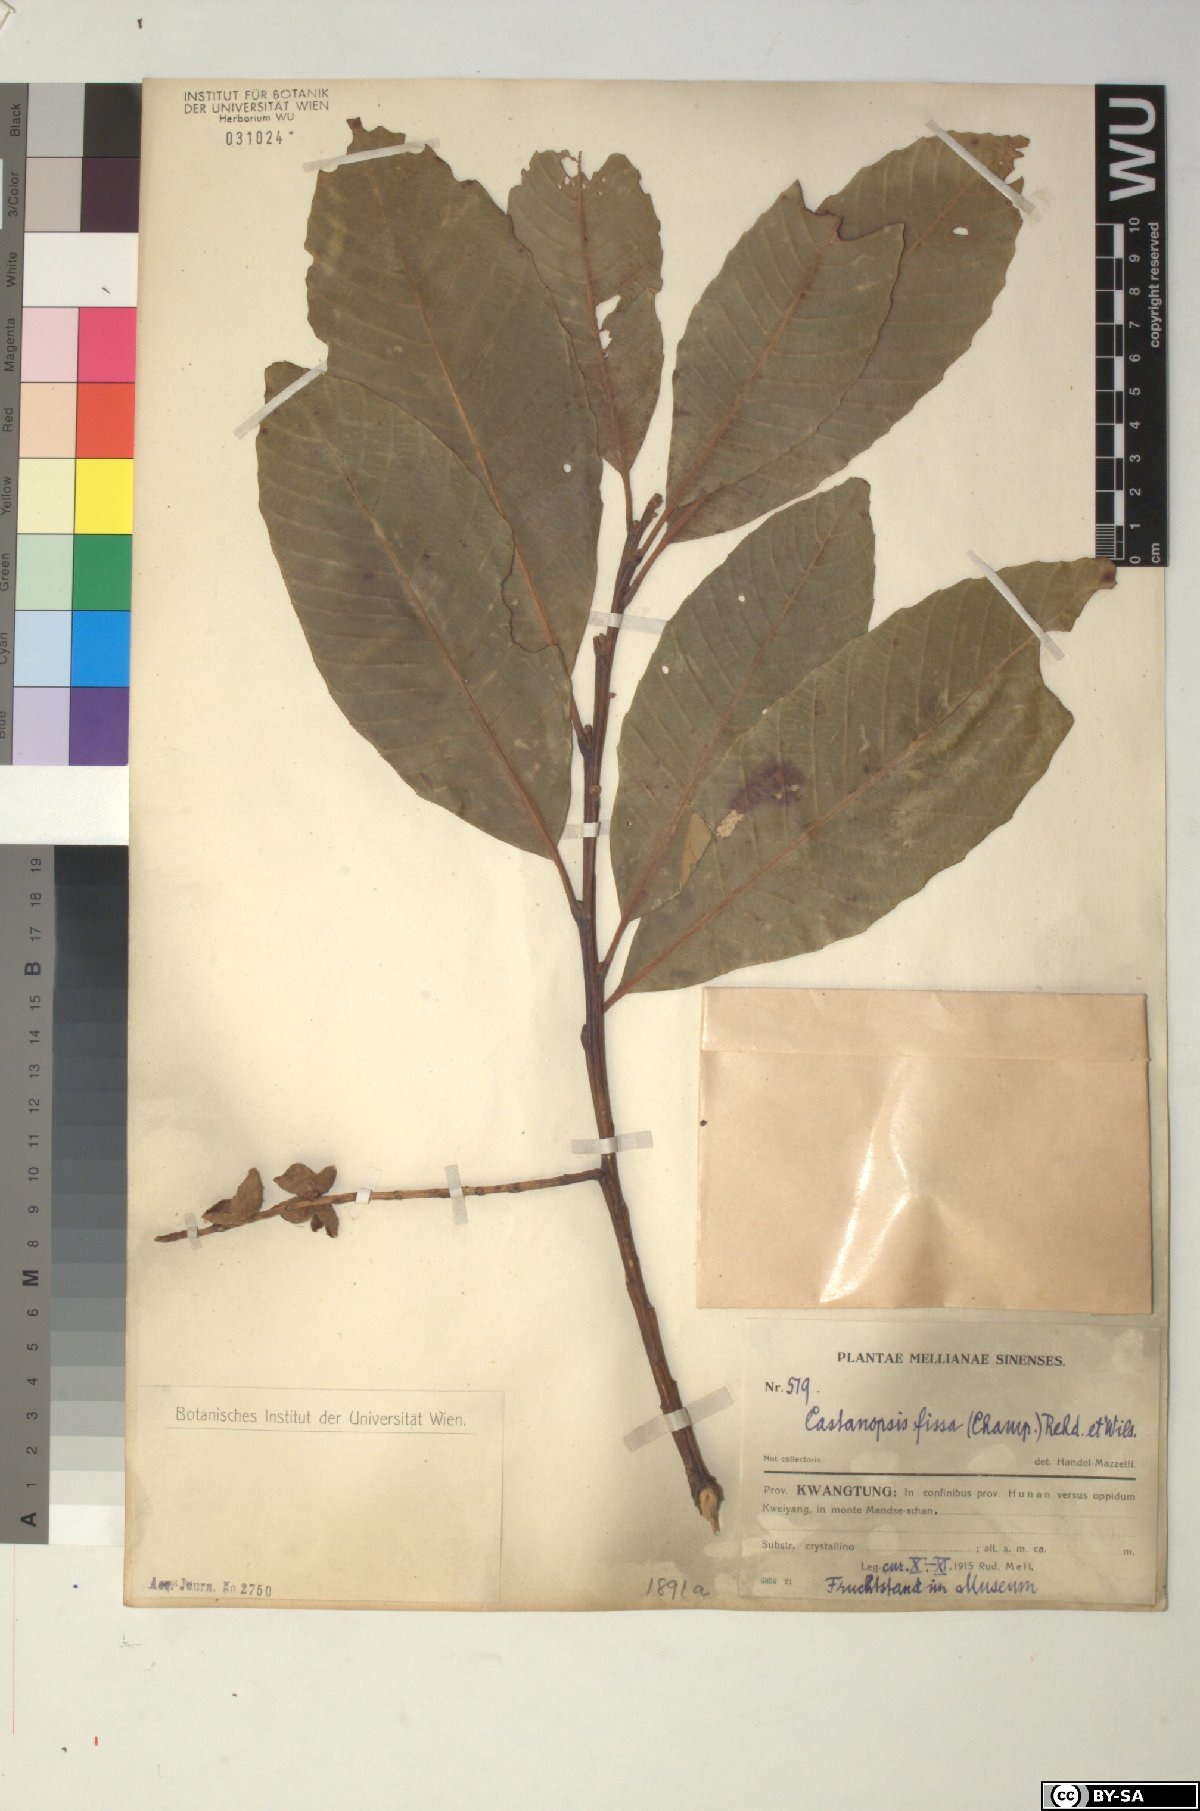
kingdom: Plantae
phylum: Tracheophyta
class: Magnoliopsida
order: Fagales
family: Fagaceae
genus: Castanopsis
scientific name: Castanopsis fissa
